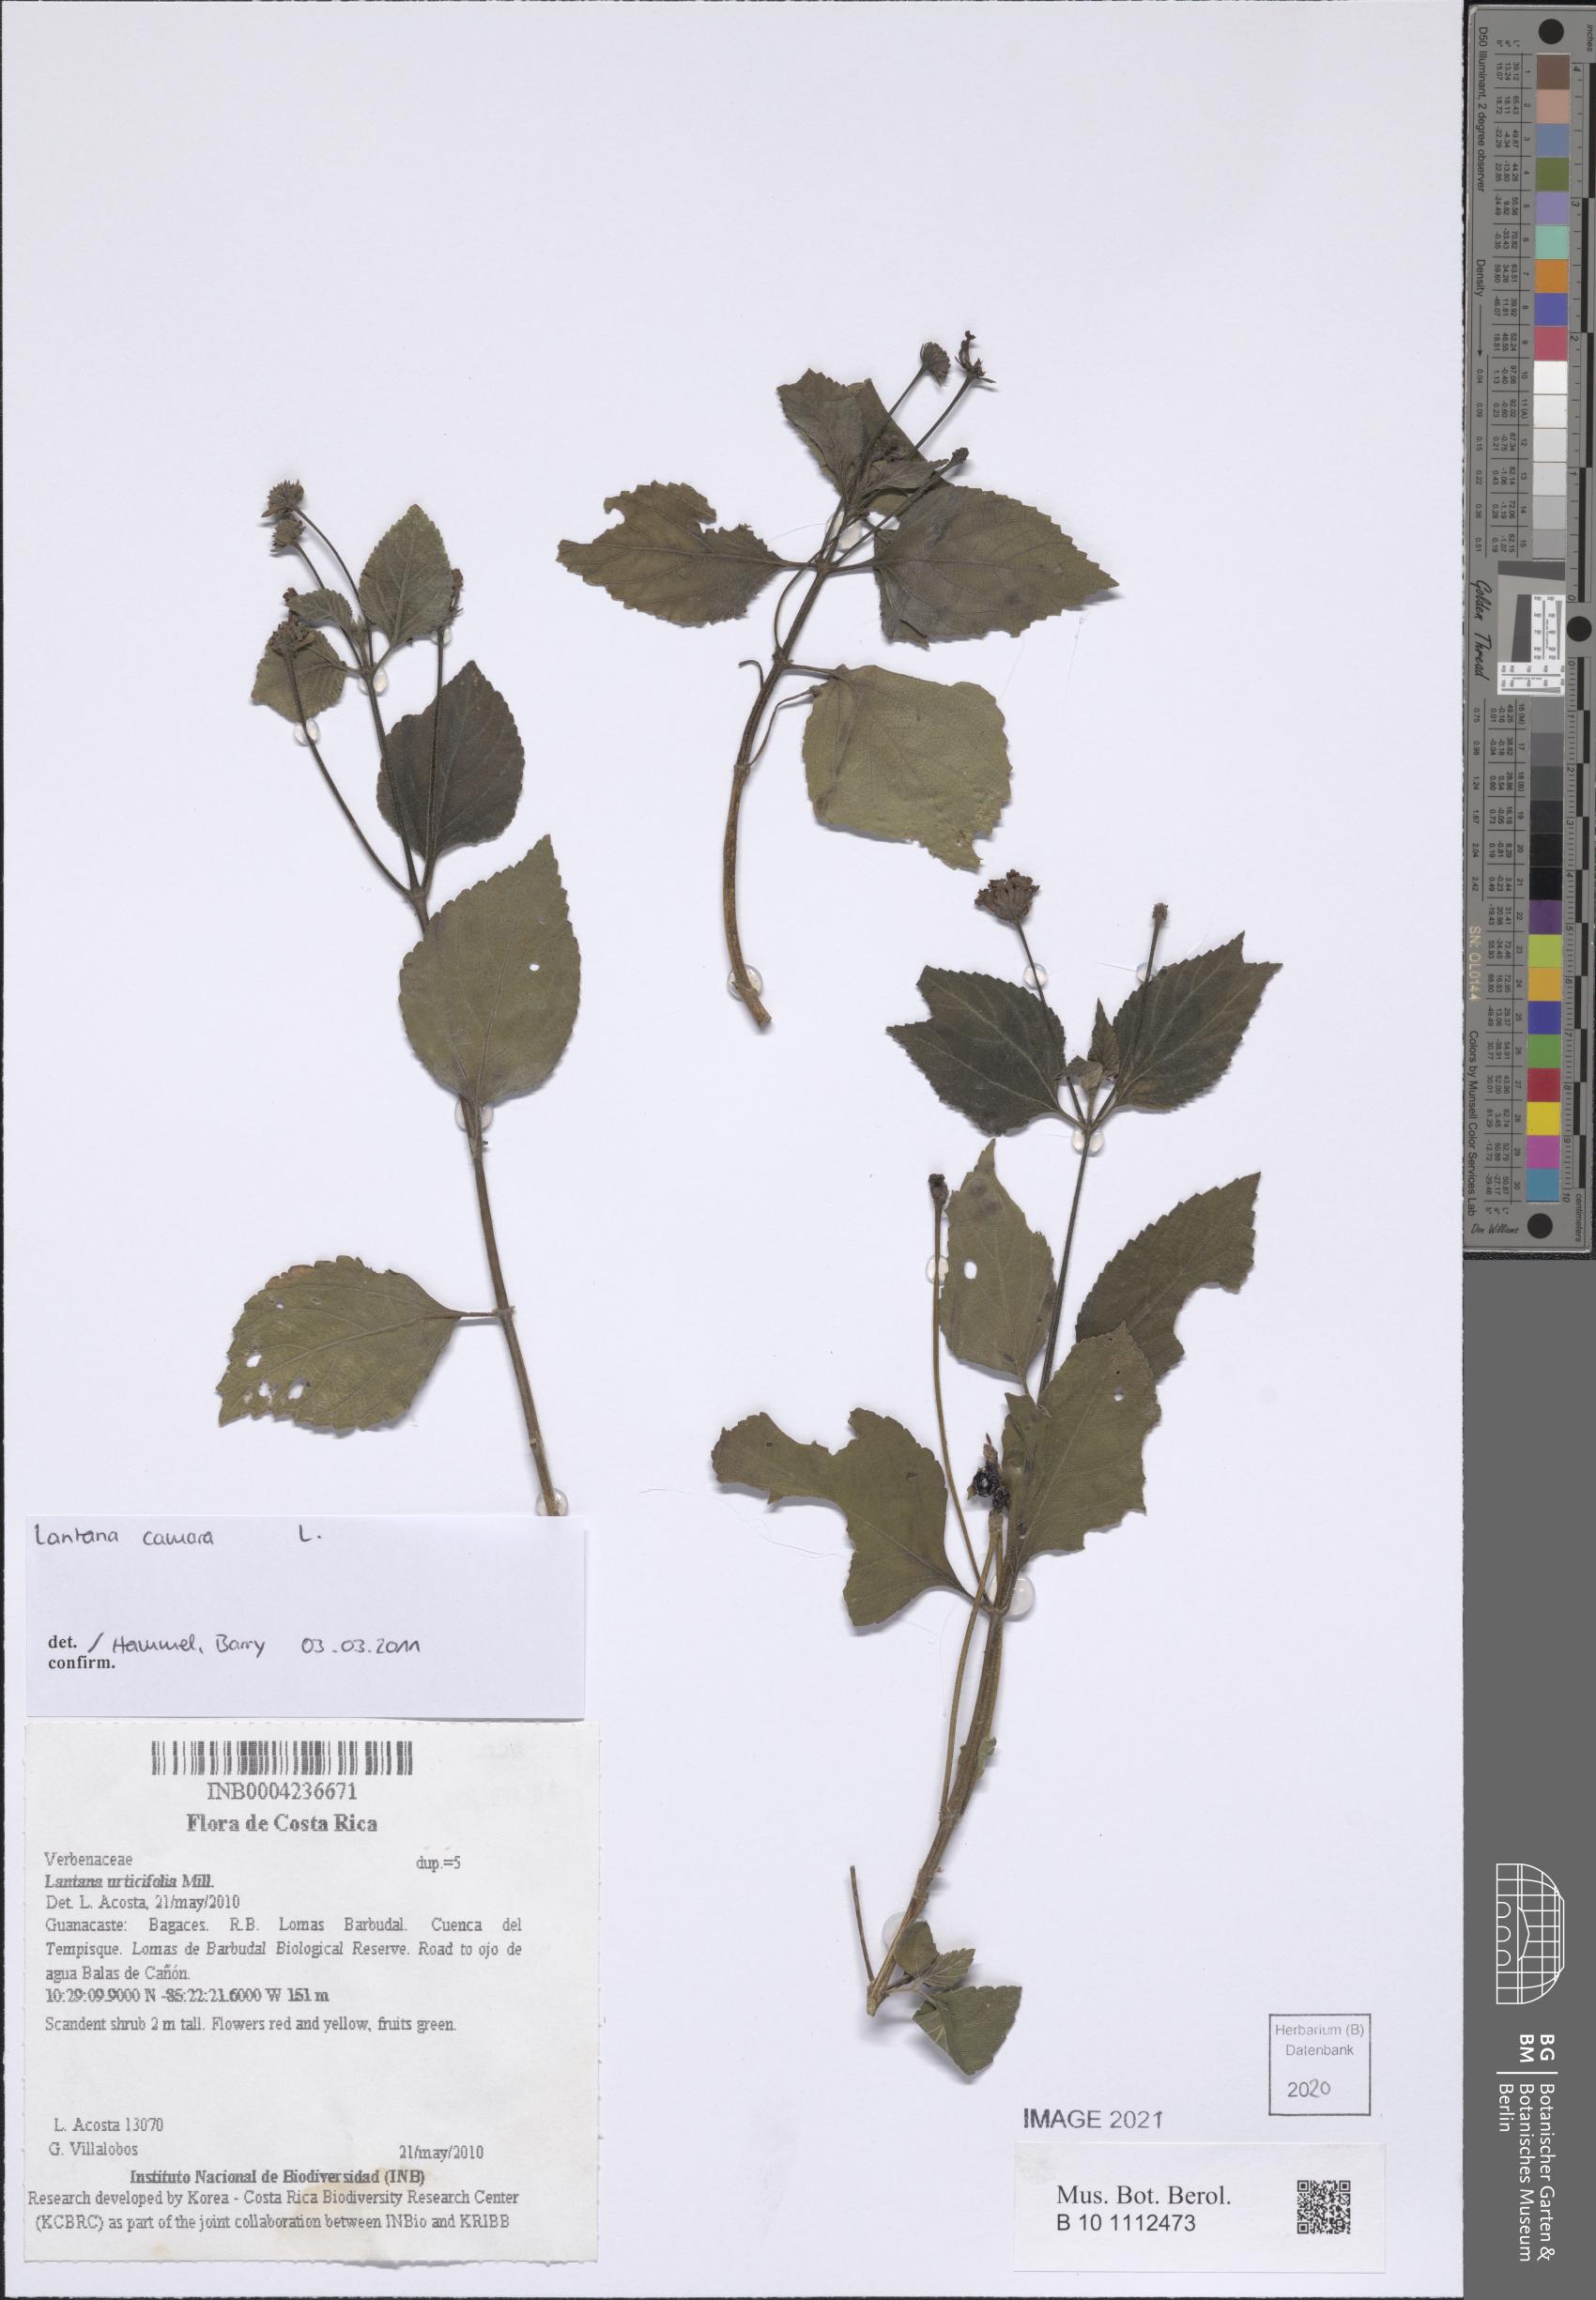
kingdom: Plantae
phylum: Tracheophyta
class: Magnoliopsida
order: Lamiales
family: Verbenaceae
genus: Lantana
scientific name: Lantana camara
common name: Lantana
